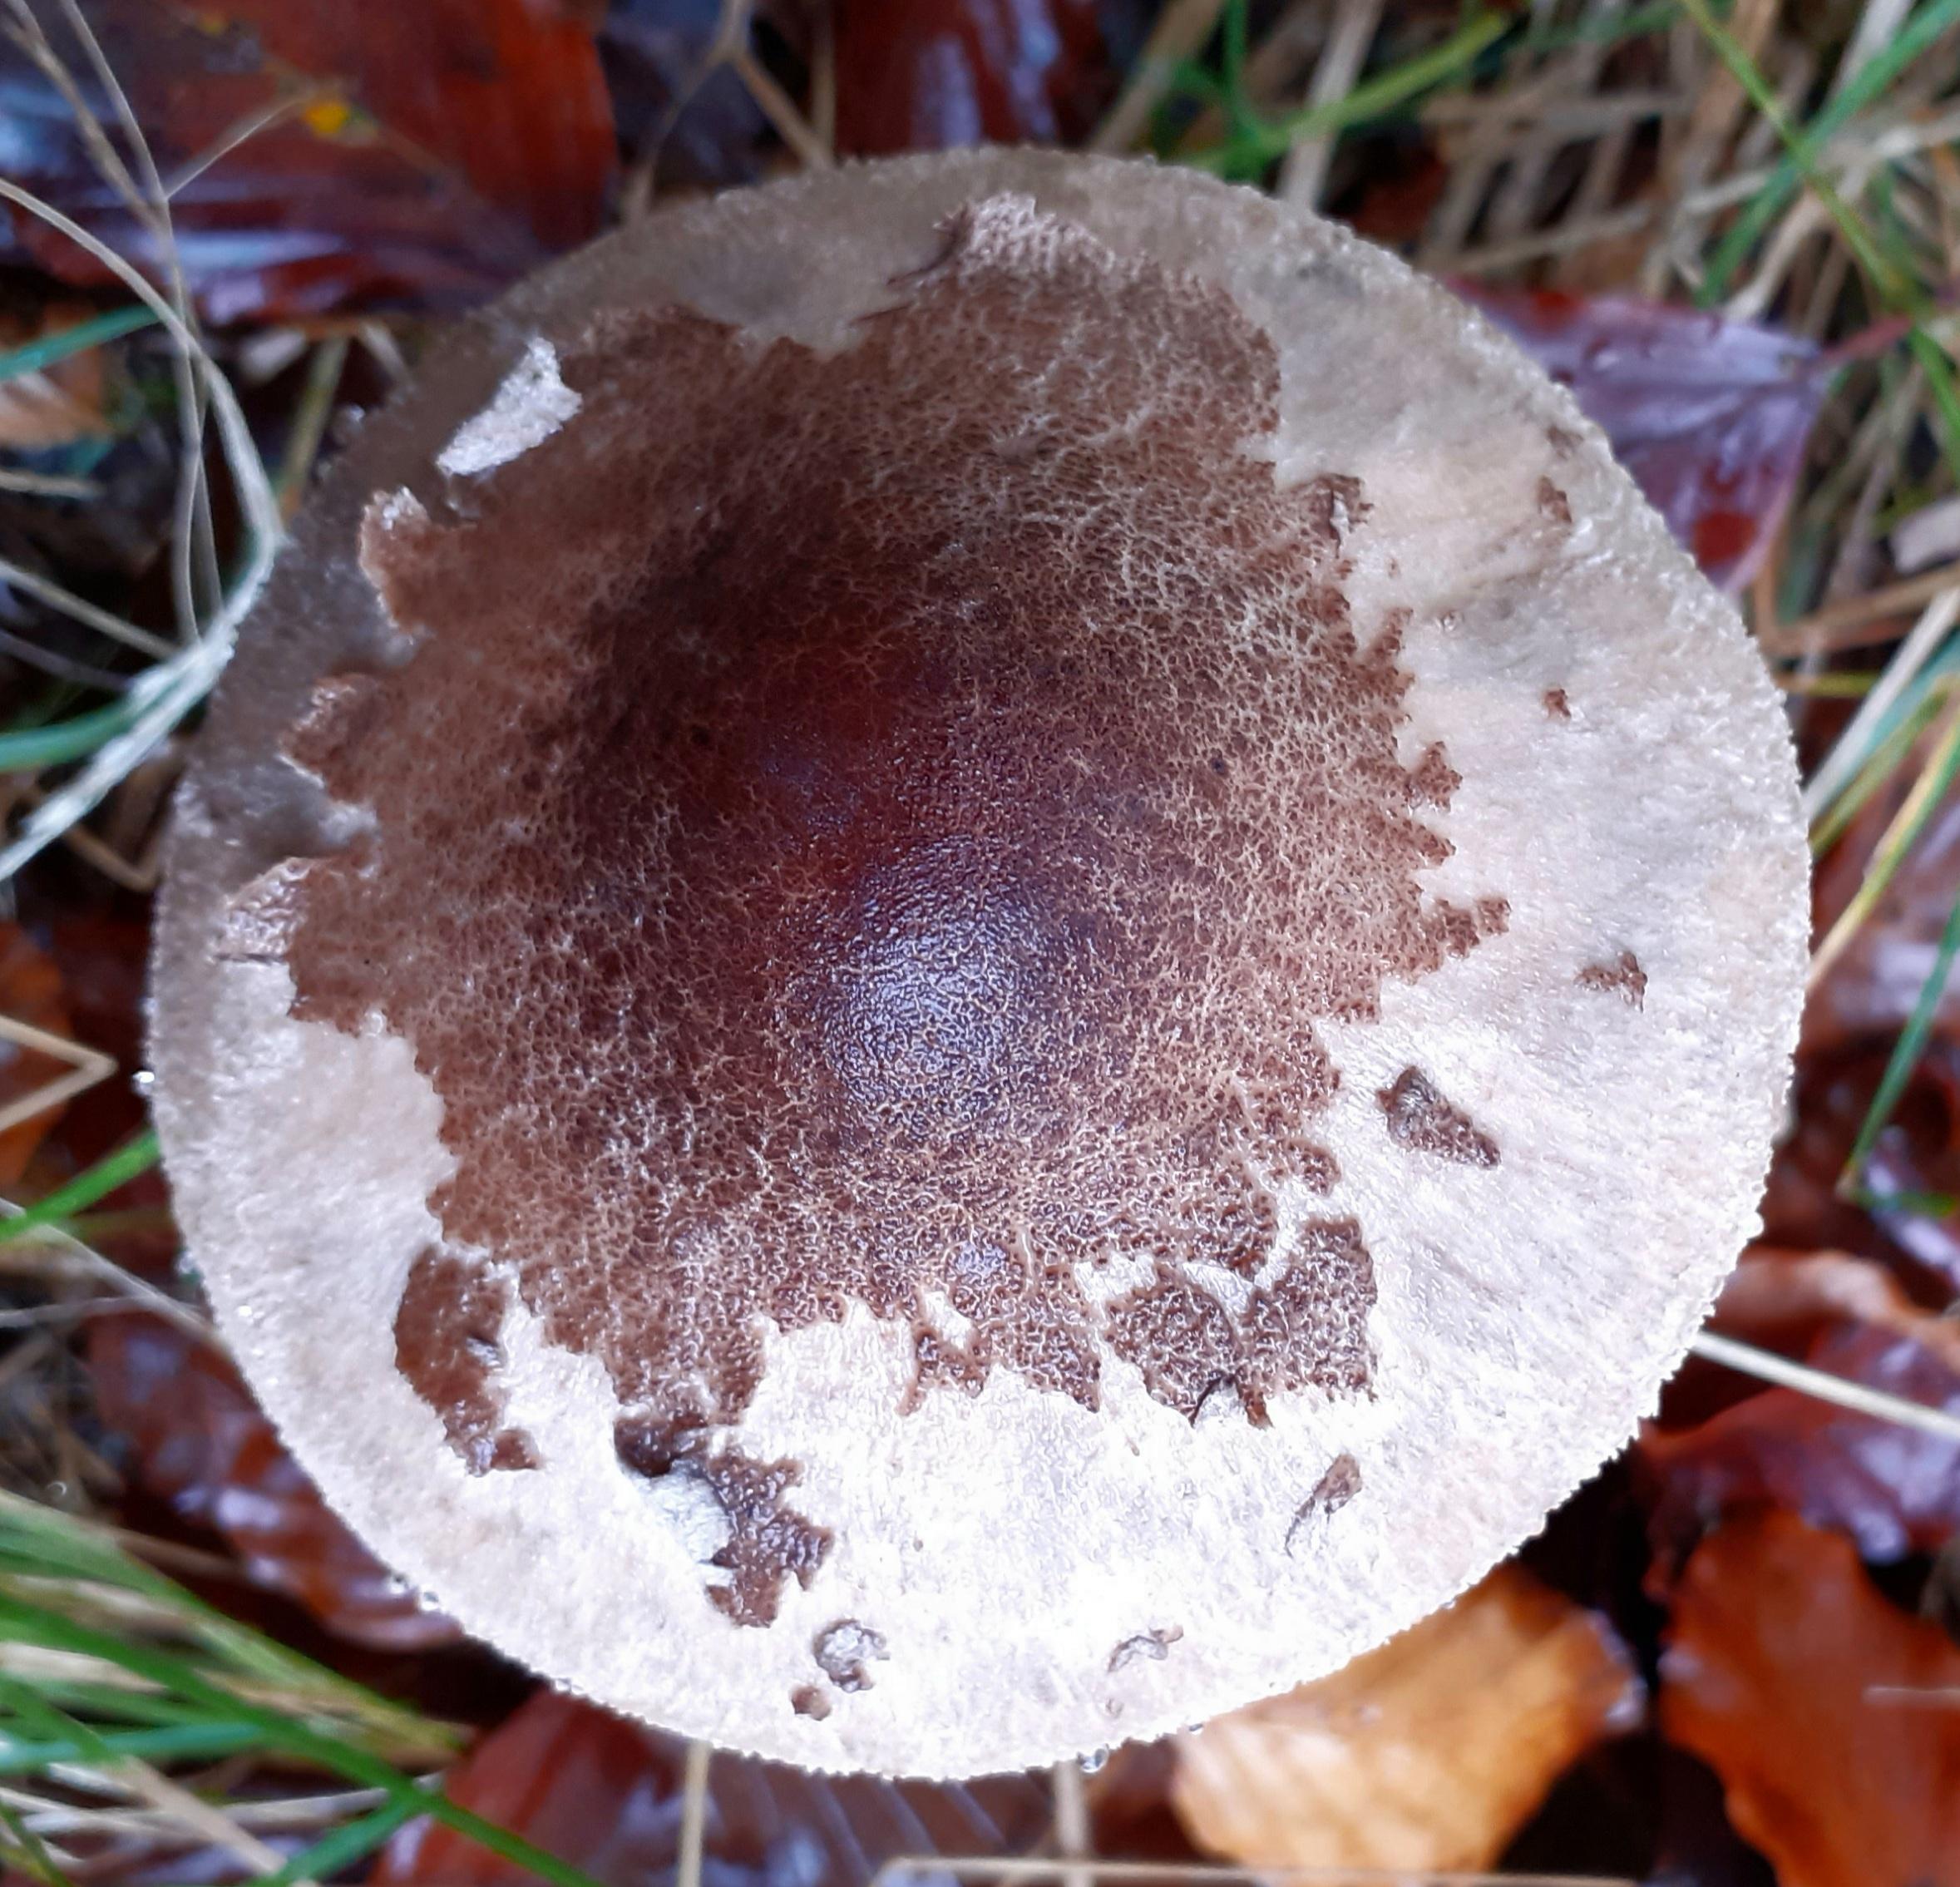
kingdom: Fungi
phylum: Basidiomycota
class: Agaricomycetes
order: Agaricales
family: Agaricaceae
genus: Macrolepiota
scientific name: Macrolepiota mastoidea
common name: puklet kæmpeparasolhat
